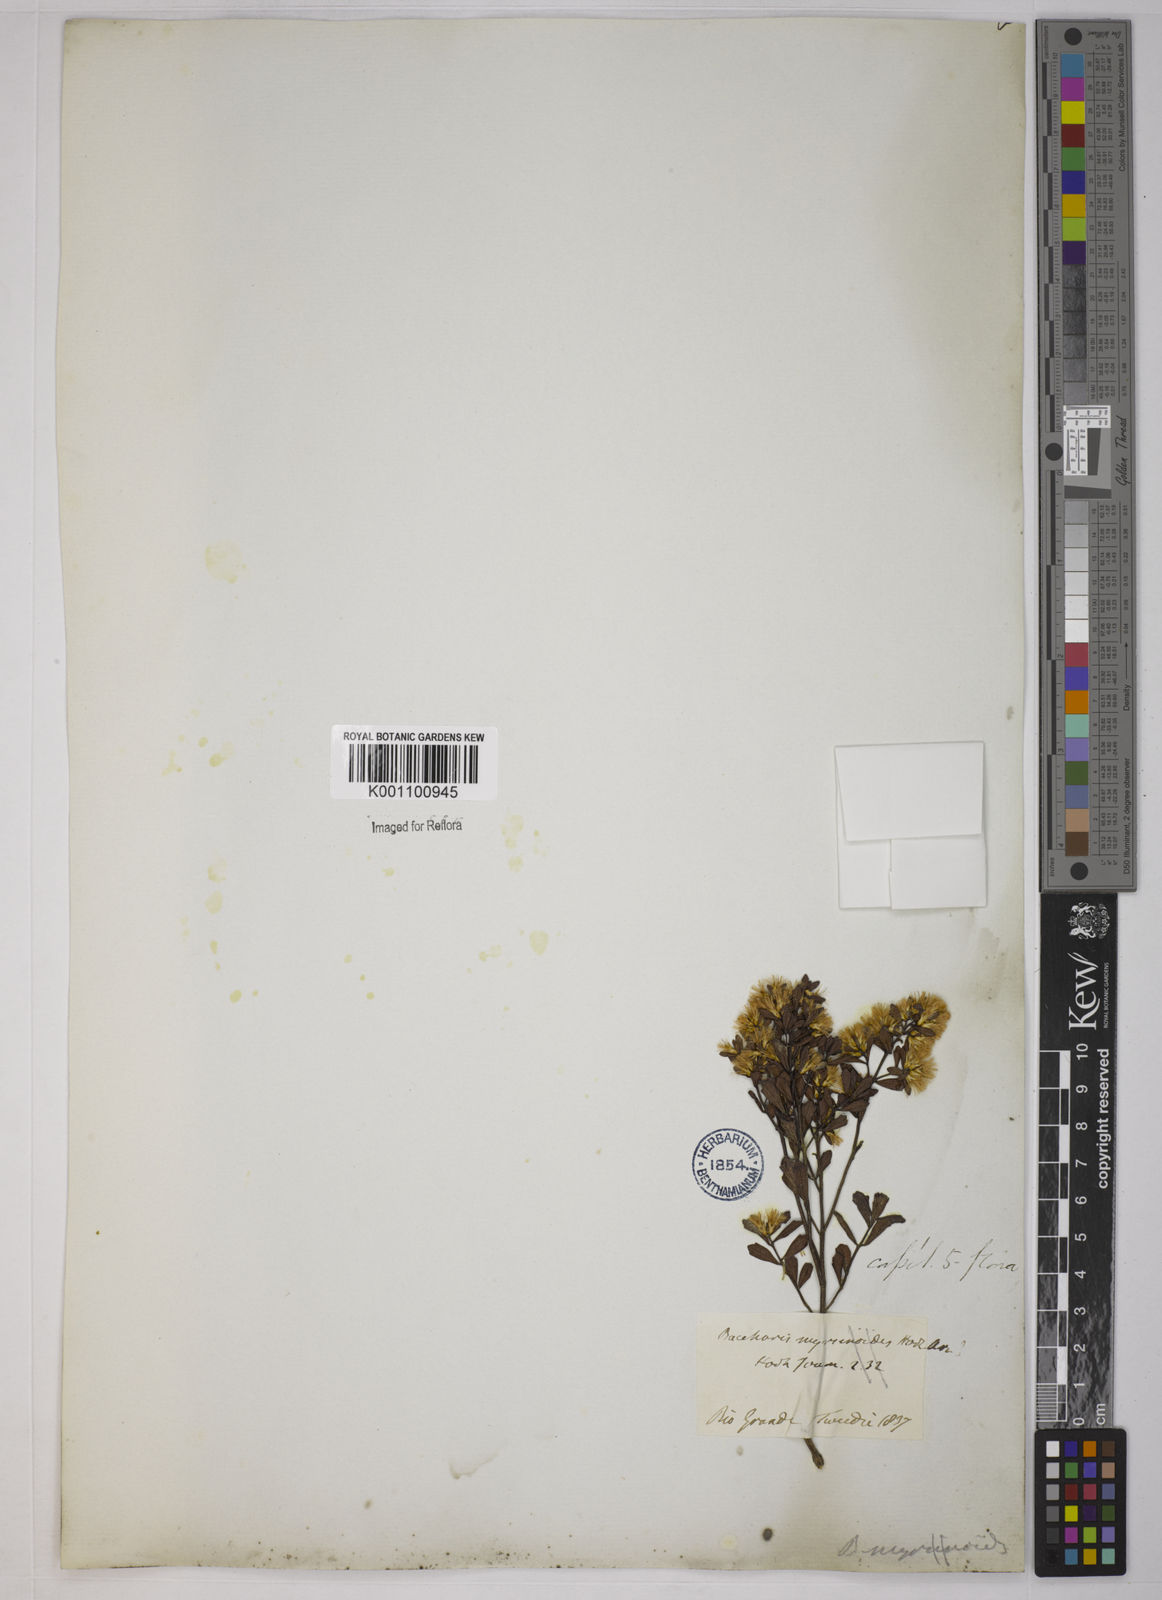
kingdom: Plantae
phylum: Tracheophyta
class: Magnoliopsida
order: Asterales
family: Asteraceae
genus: Baccharis
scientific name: Baccharis pauciflosculosa
